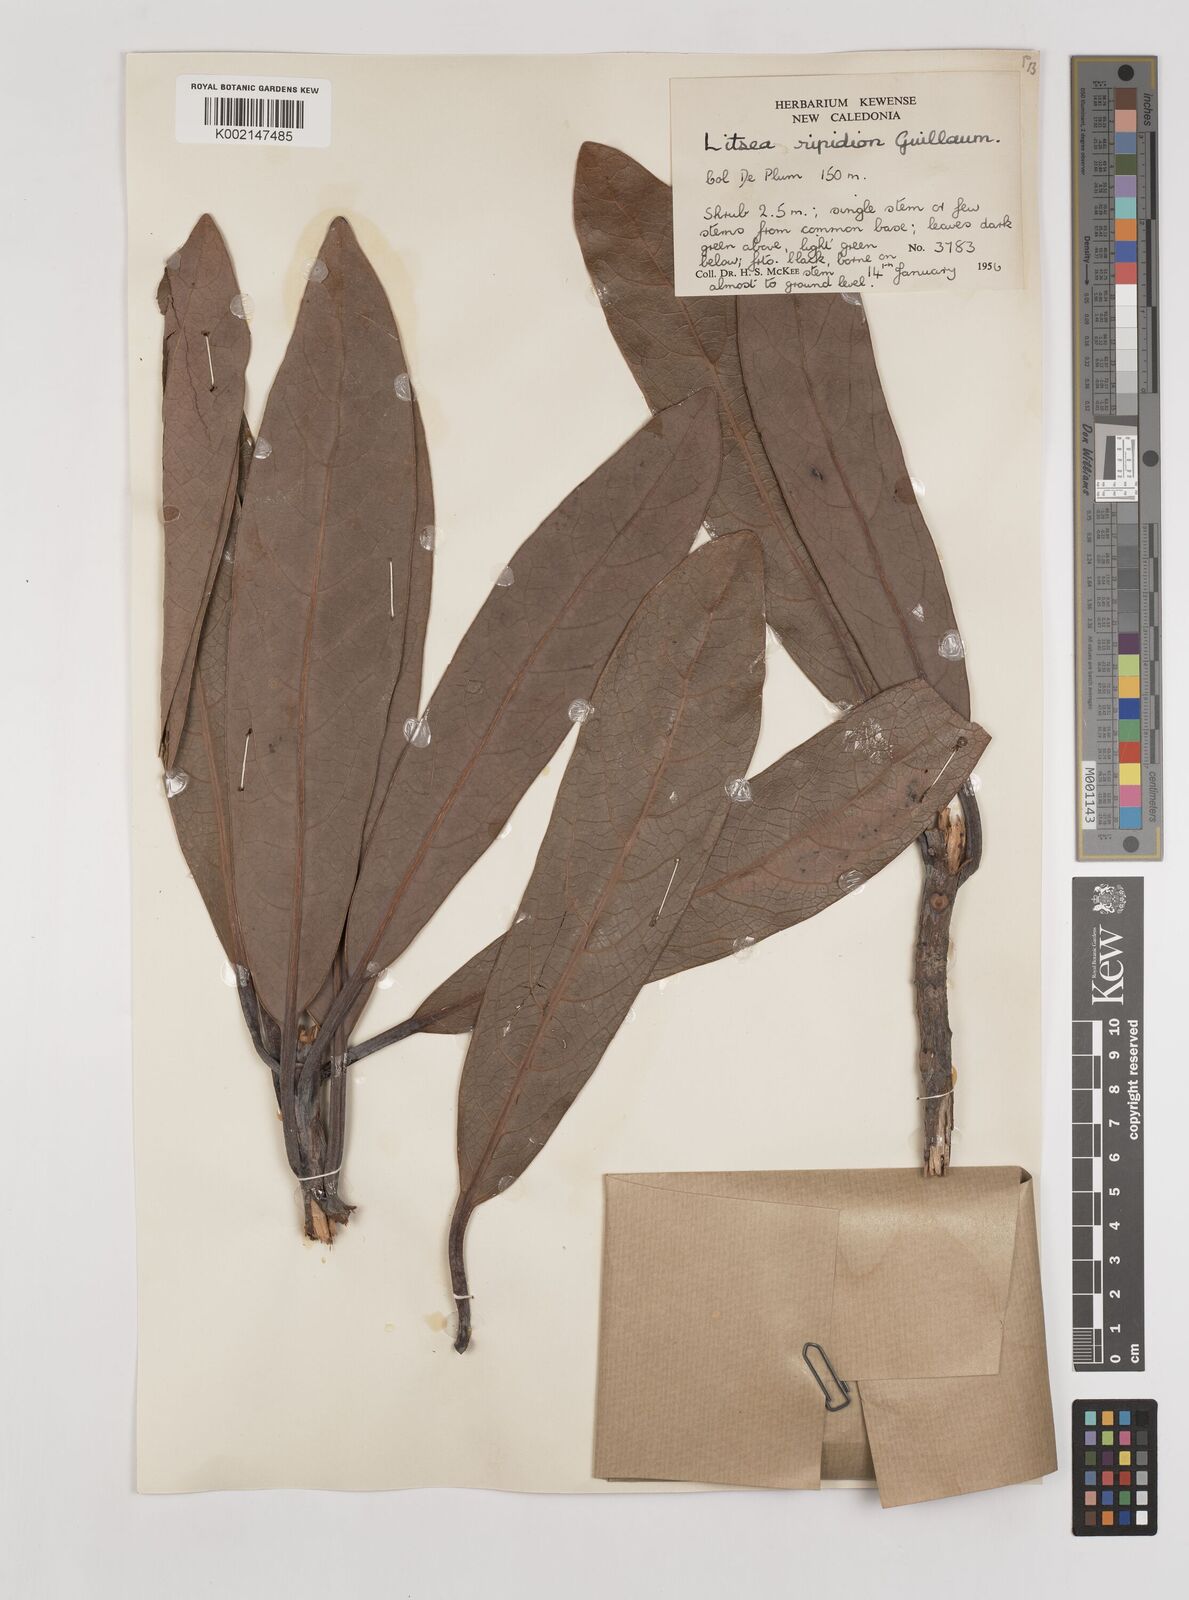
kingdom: Plantae
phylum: Tracheophyta
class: Magnoliopsida
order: Laurales
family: Lauraceae
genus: Litsea
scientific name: Litsea ripidion
